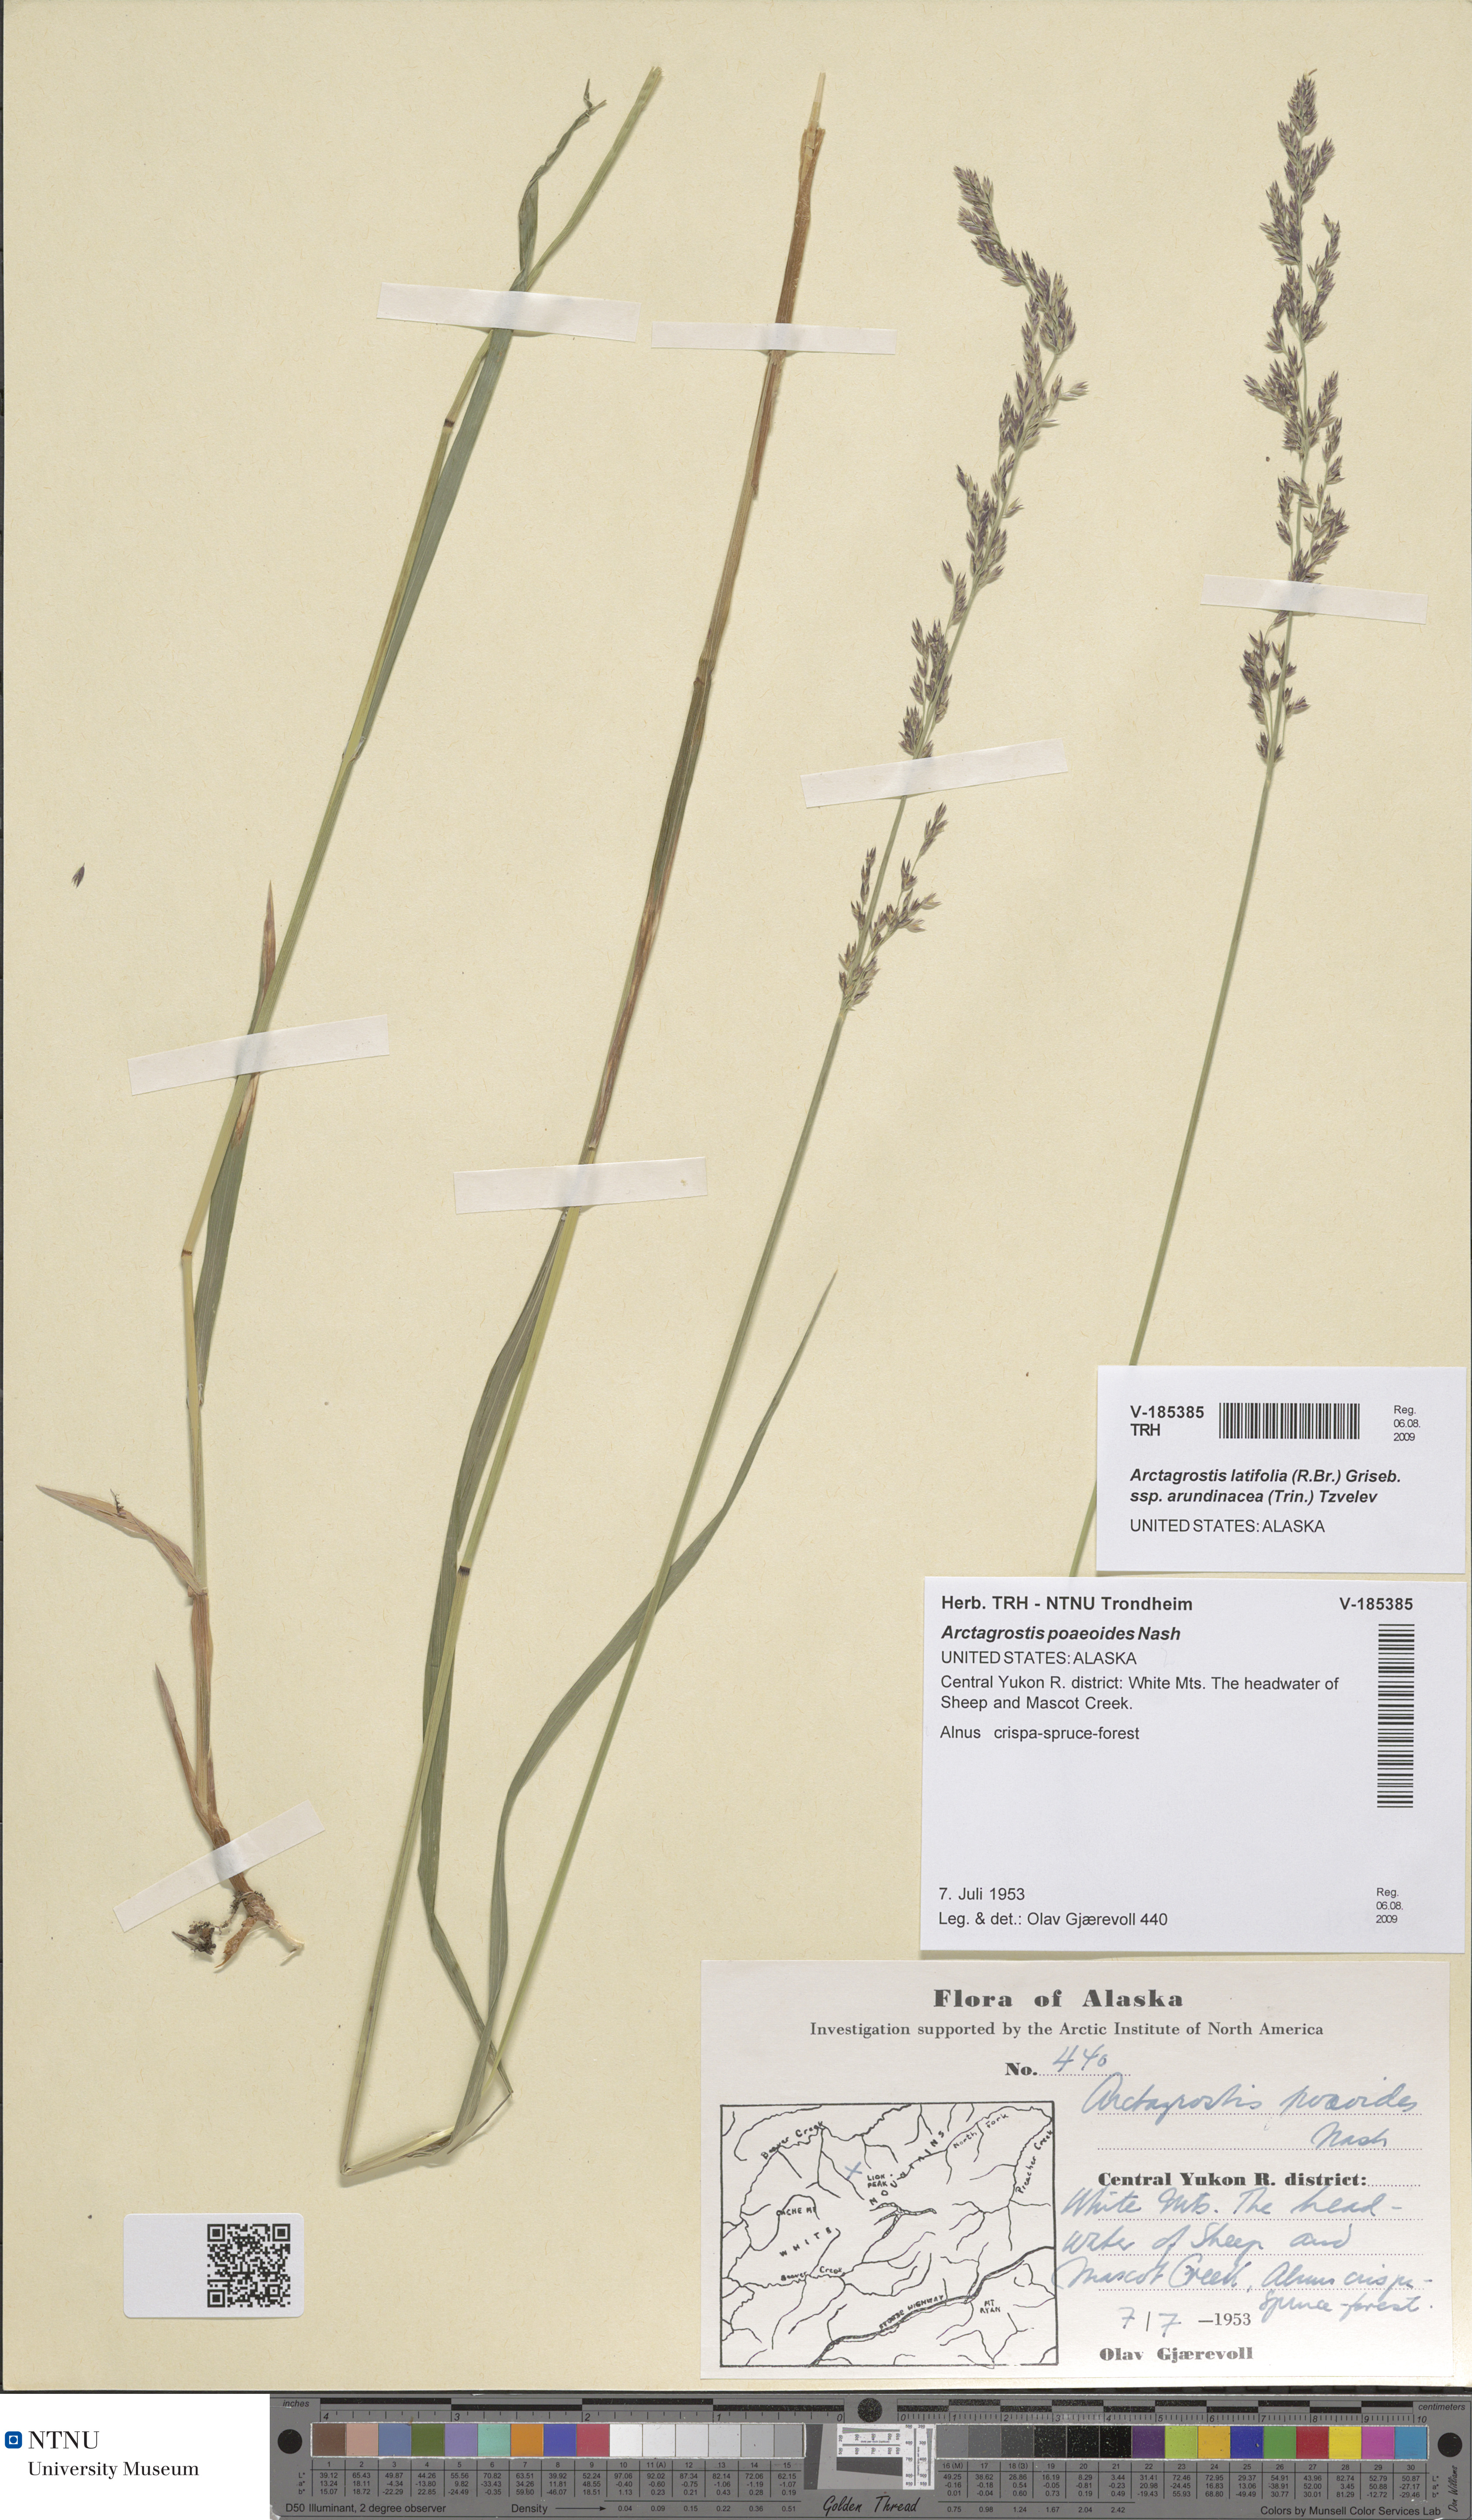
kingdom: Plantae
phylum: Tracheophyta
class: Liliopsida
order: Poales
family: Poaceae
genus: Arctagrostis
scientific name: Arctagrostis arundinacea
